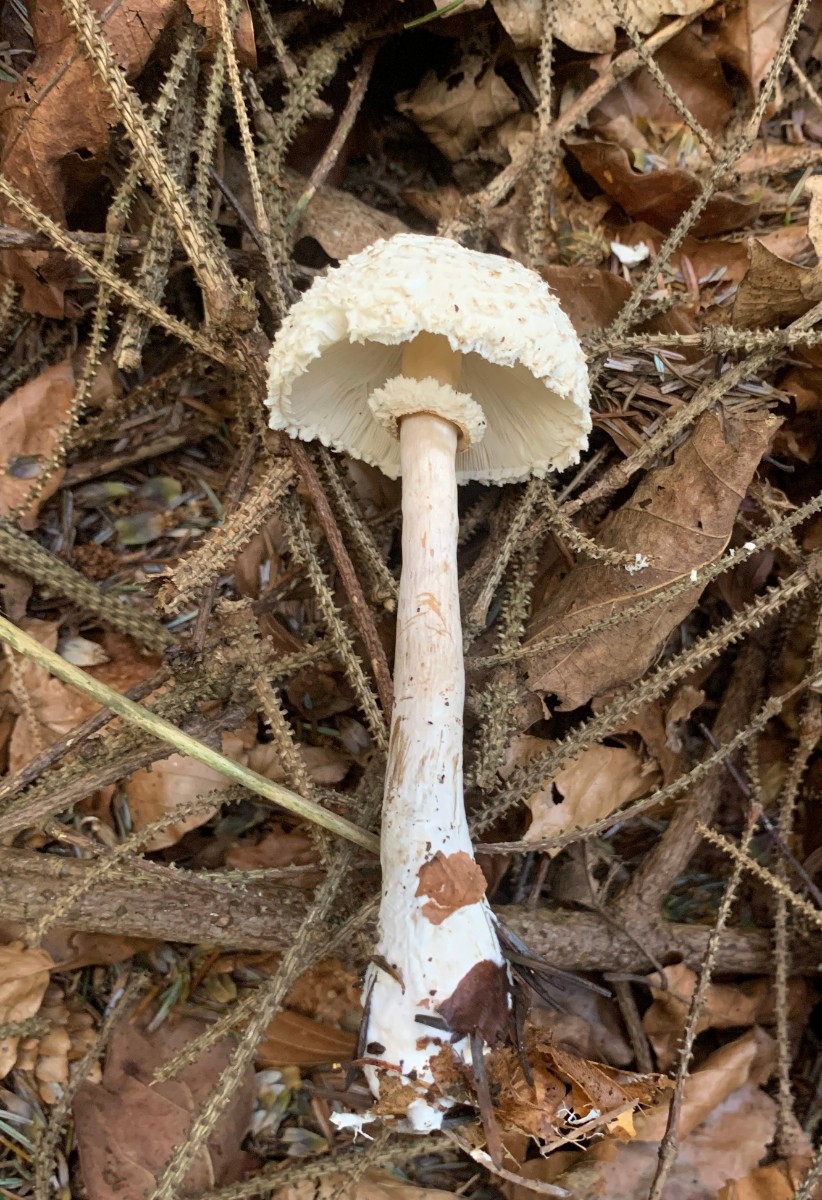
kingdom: Fungi
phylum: Basidiomycota
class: Agaricomycetes
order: Agaricales
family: Agaricaceae
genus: Leucoagaricus
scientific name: Leucoagaricus nympharum
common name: gran-silkehat
